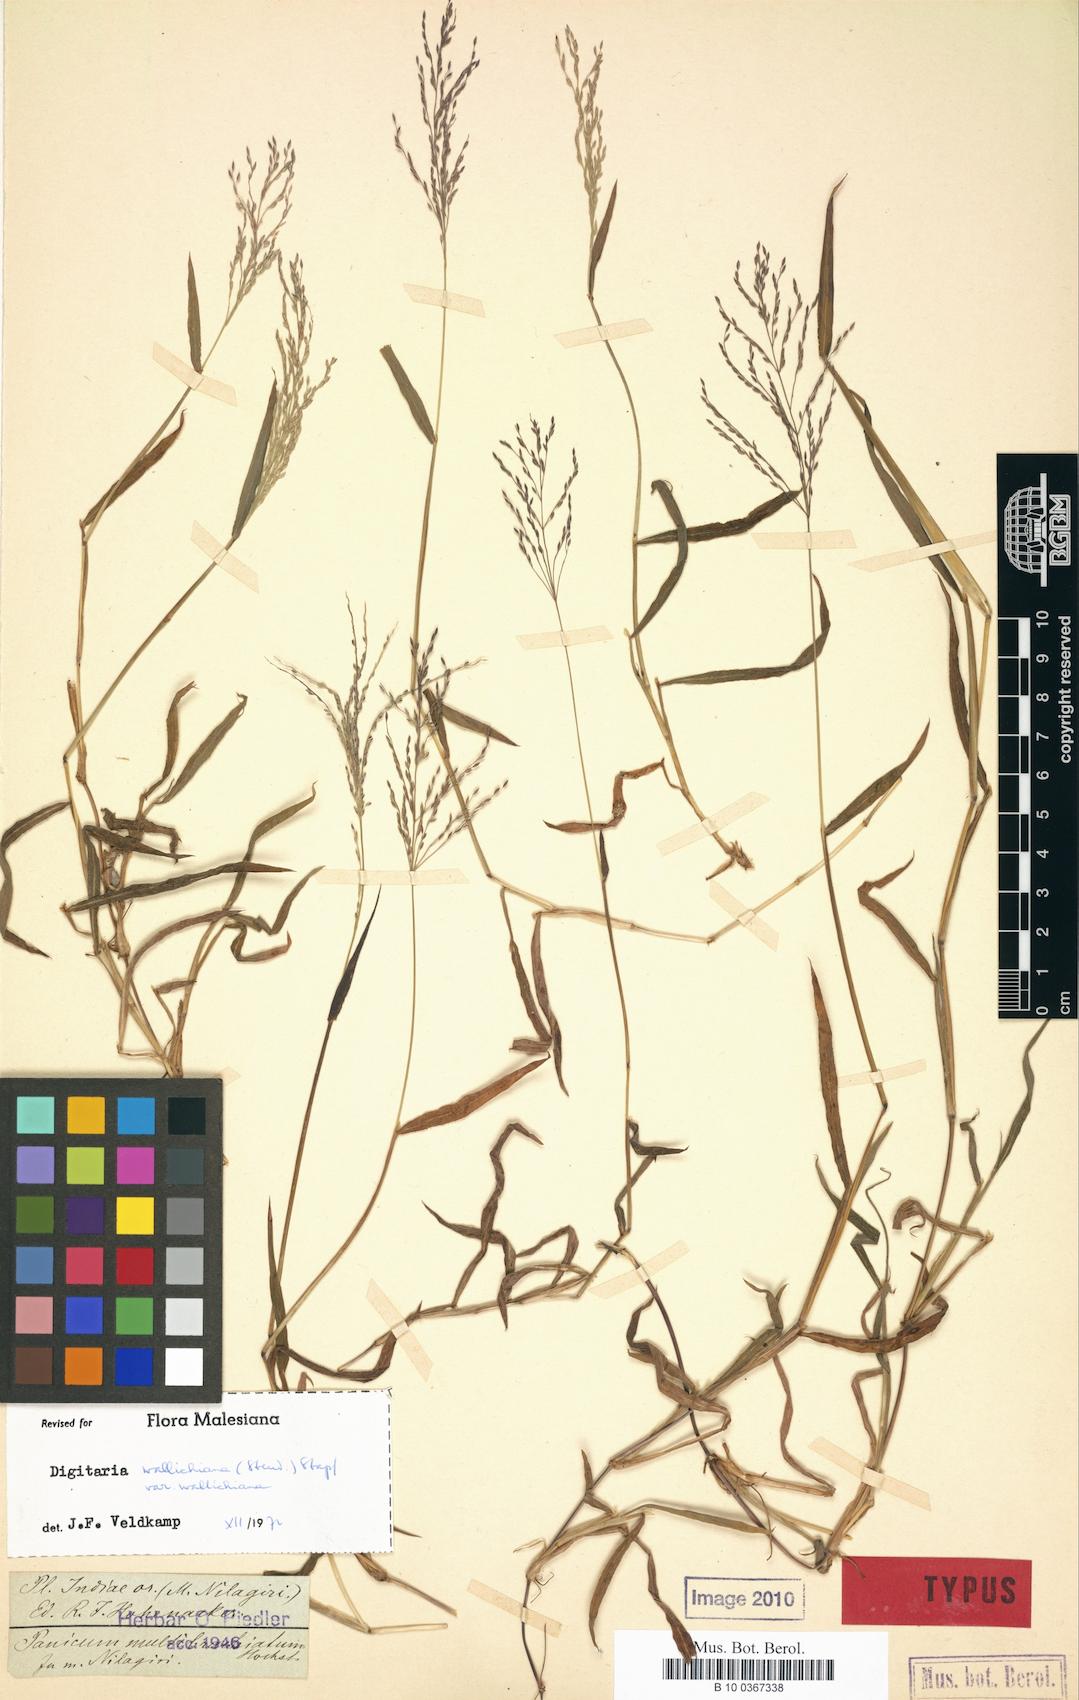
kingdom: Plantae
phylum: Tracheophyta
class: Liliopsida
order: Poales
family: Poaceae
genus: Digitaria
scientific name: Digitaria wallichiana
